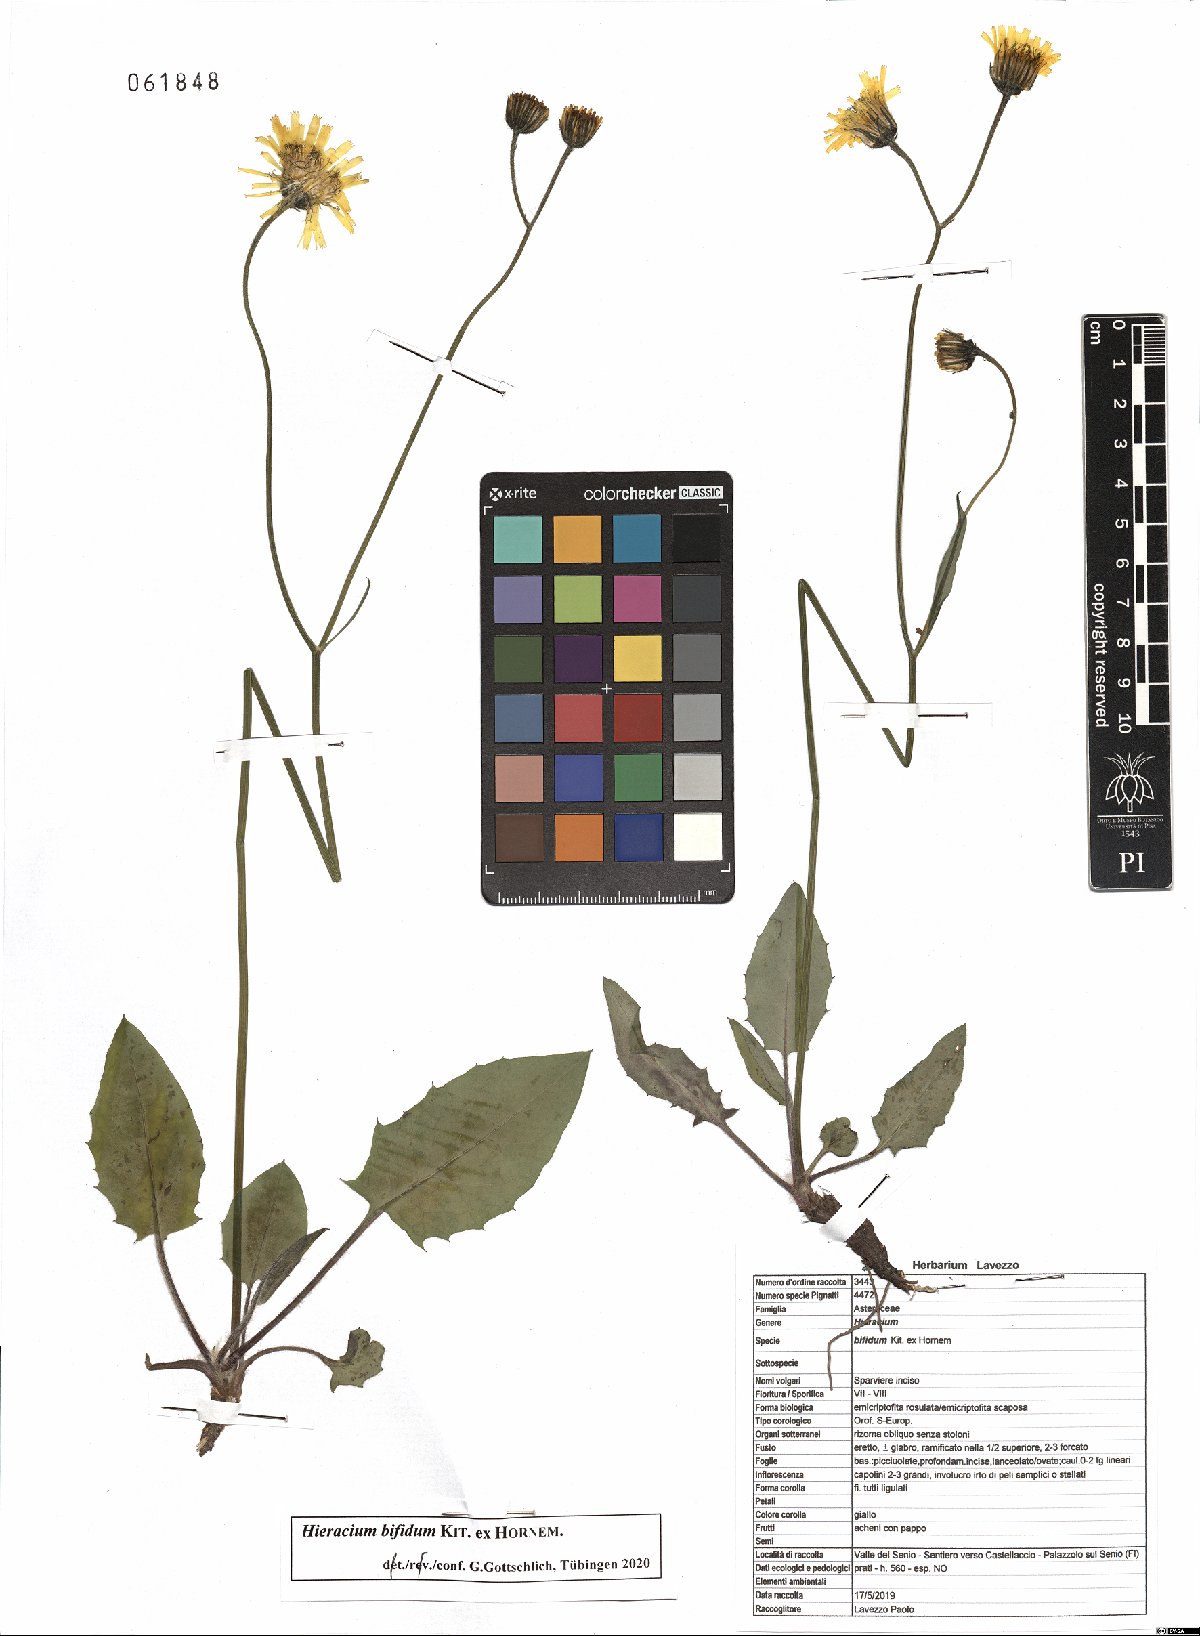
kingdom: Plantae
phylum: Tracheophyta
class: Magnoliopsida
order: Asterales
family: Asteraceae
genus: Hieracium
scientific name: Hieracium bifidum
